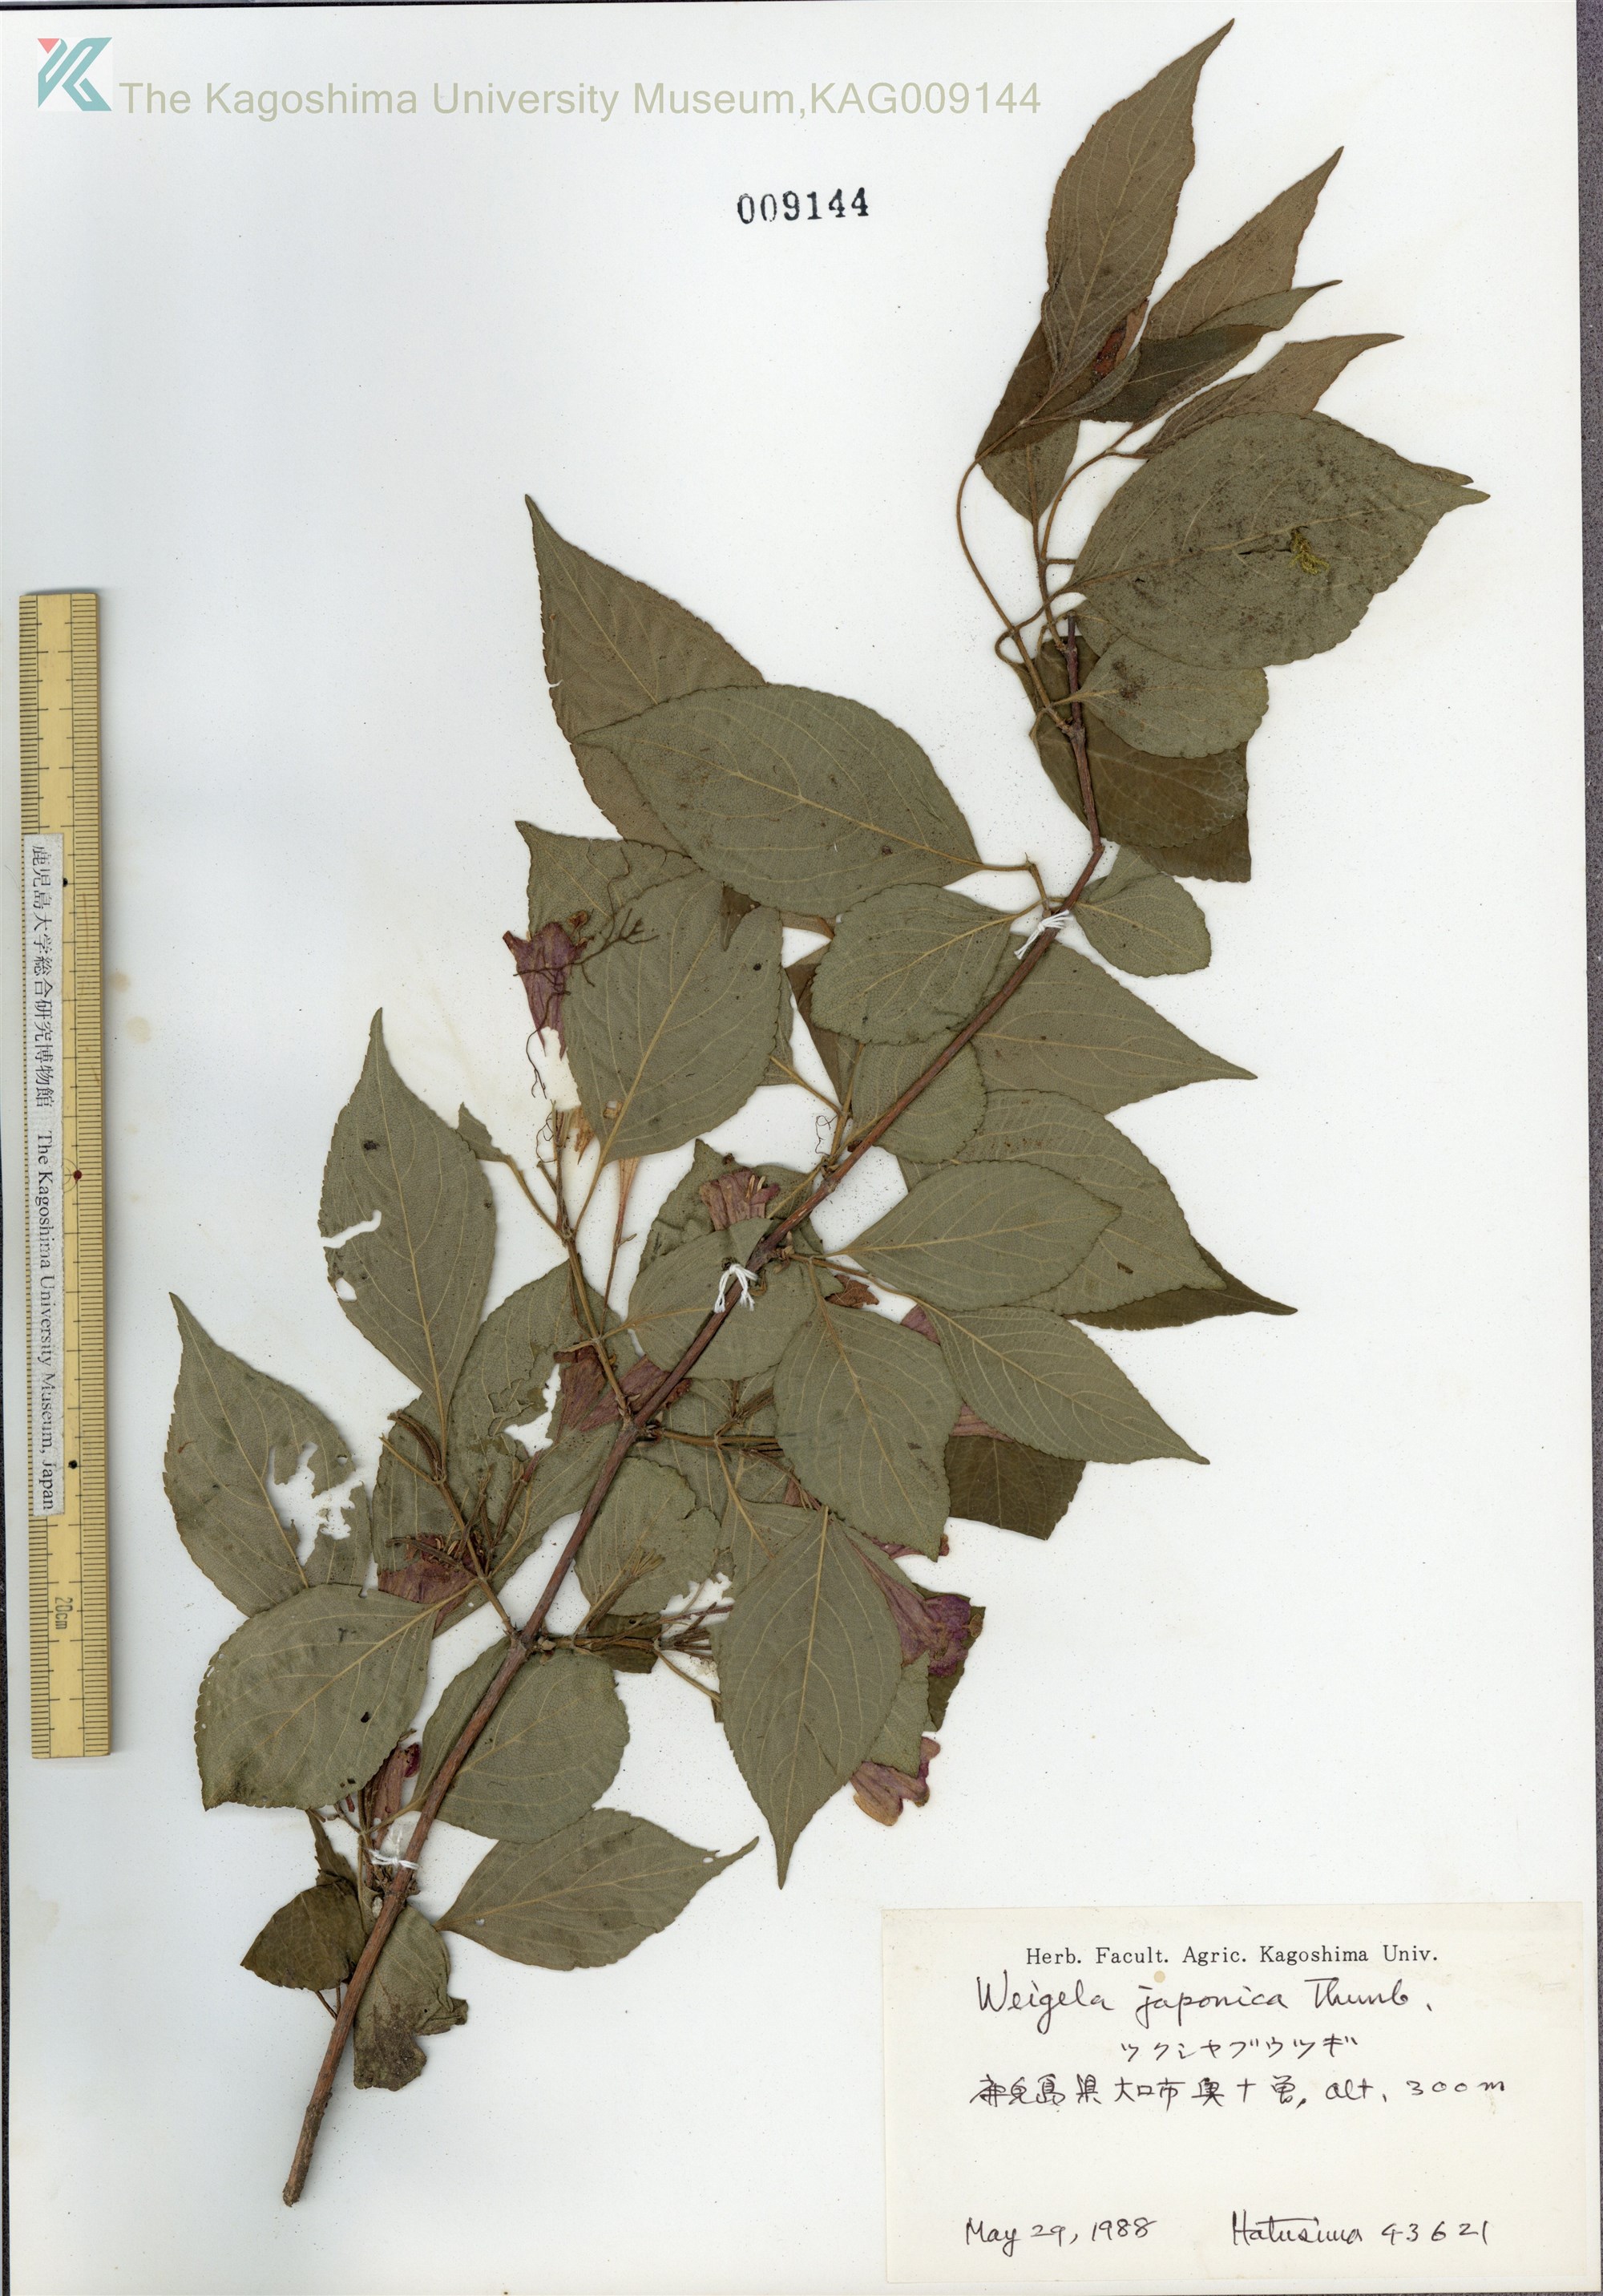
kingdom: Plantae
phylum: Tracheophyta
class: Magnoliopsida
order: Dipsacales
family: Caprifoliaceae
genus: Weigela
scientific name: Weigela japonica
